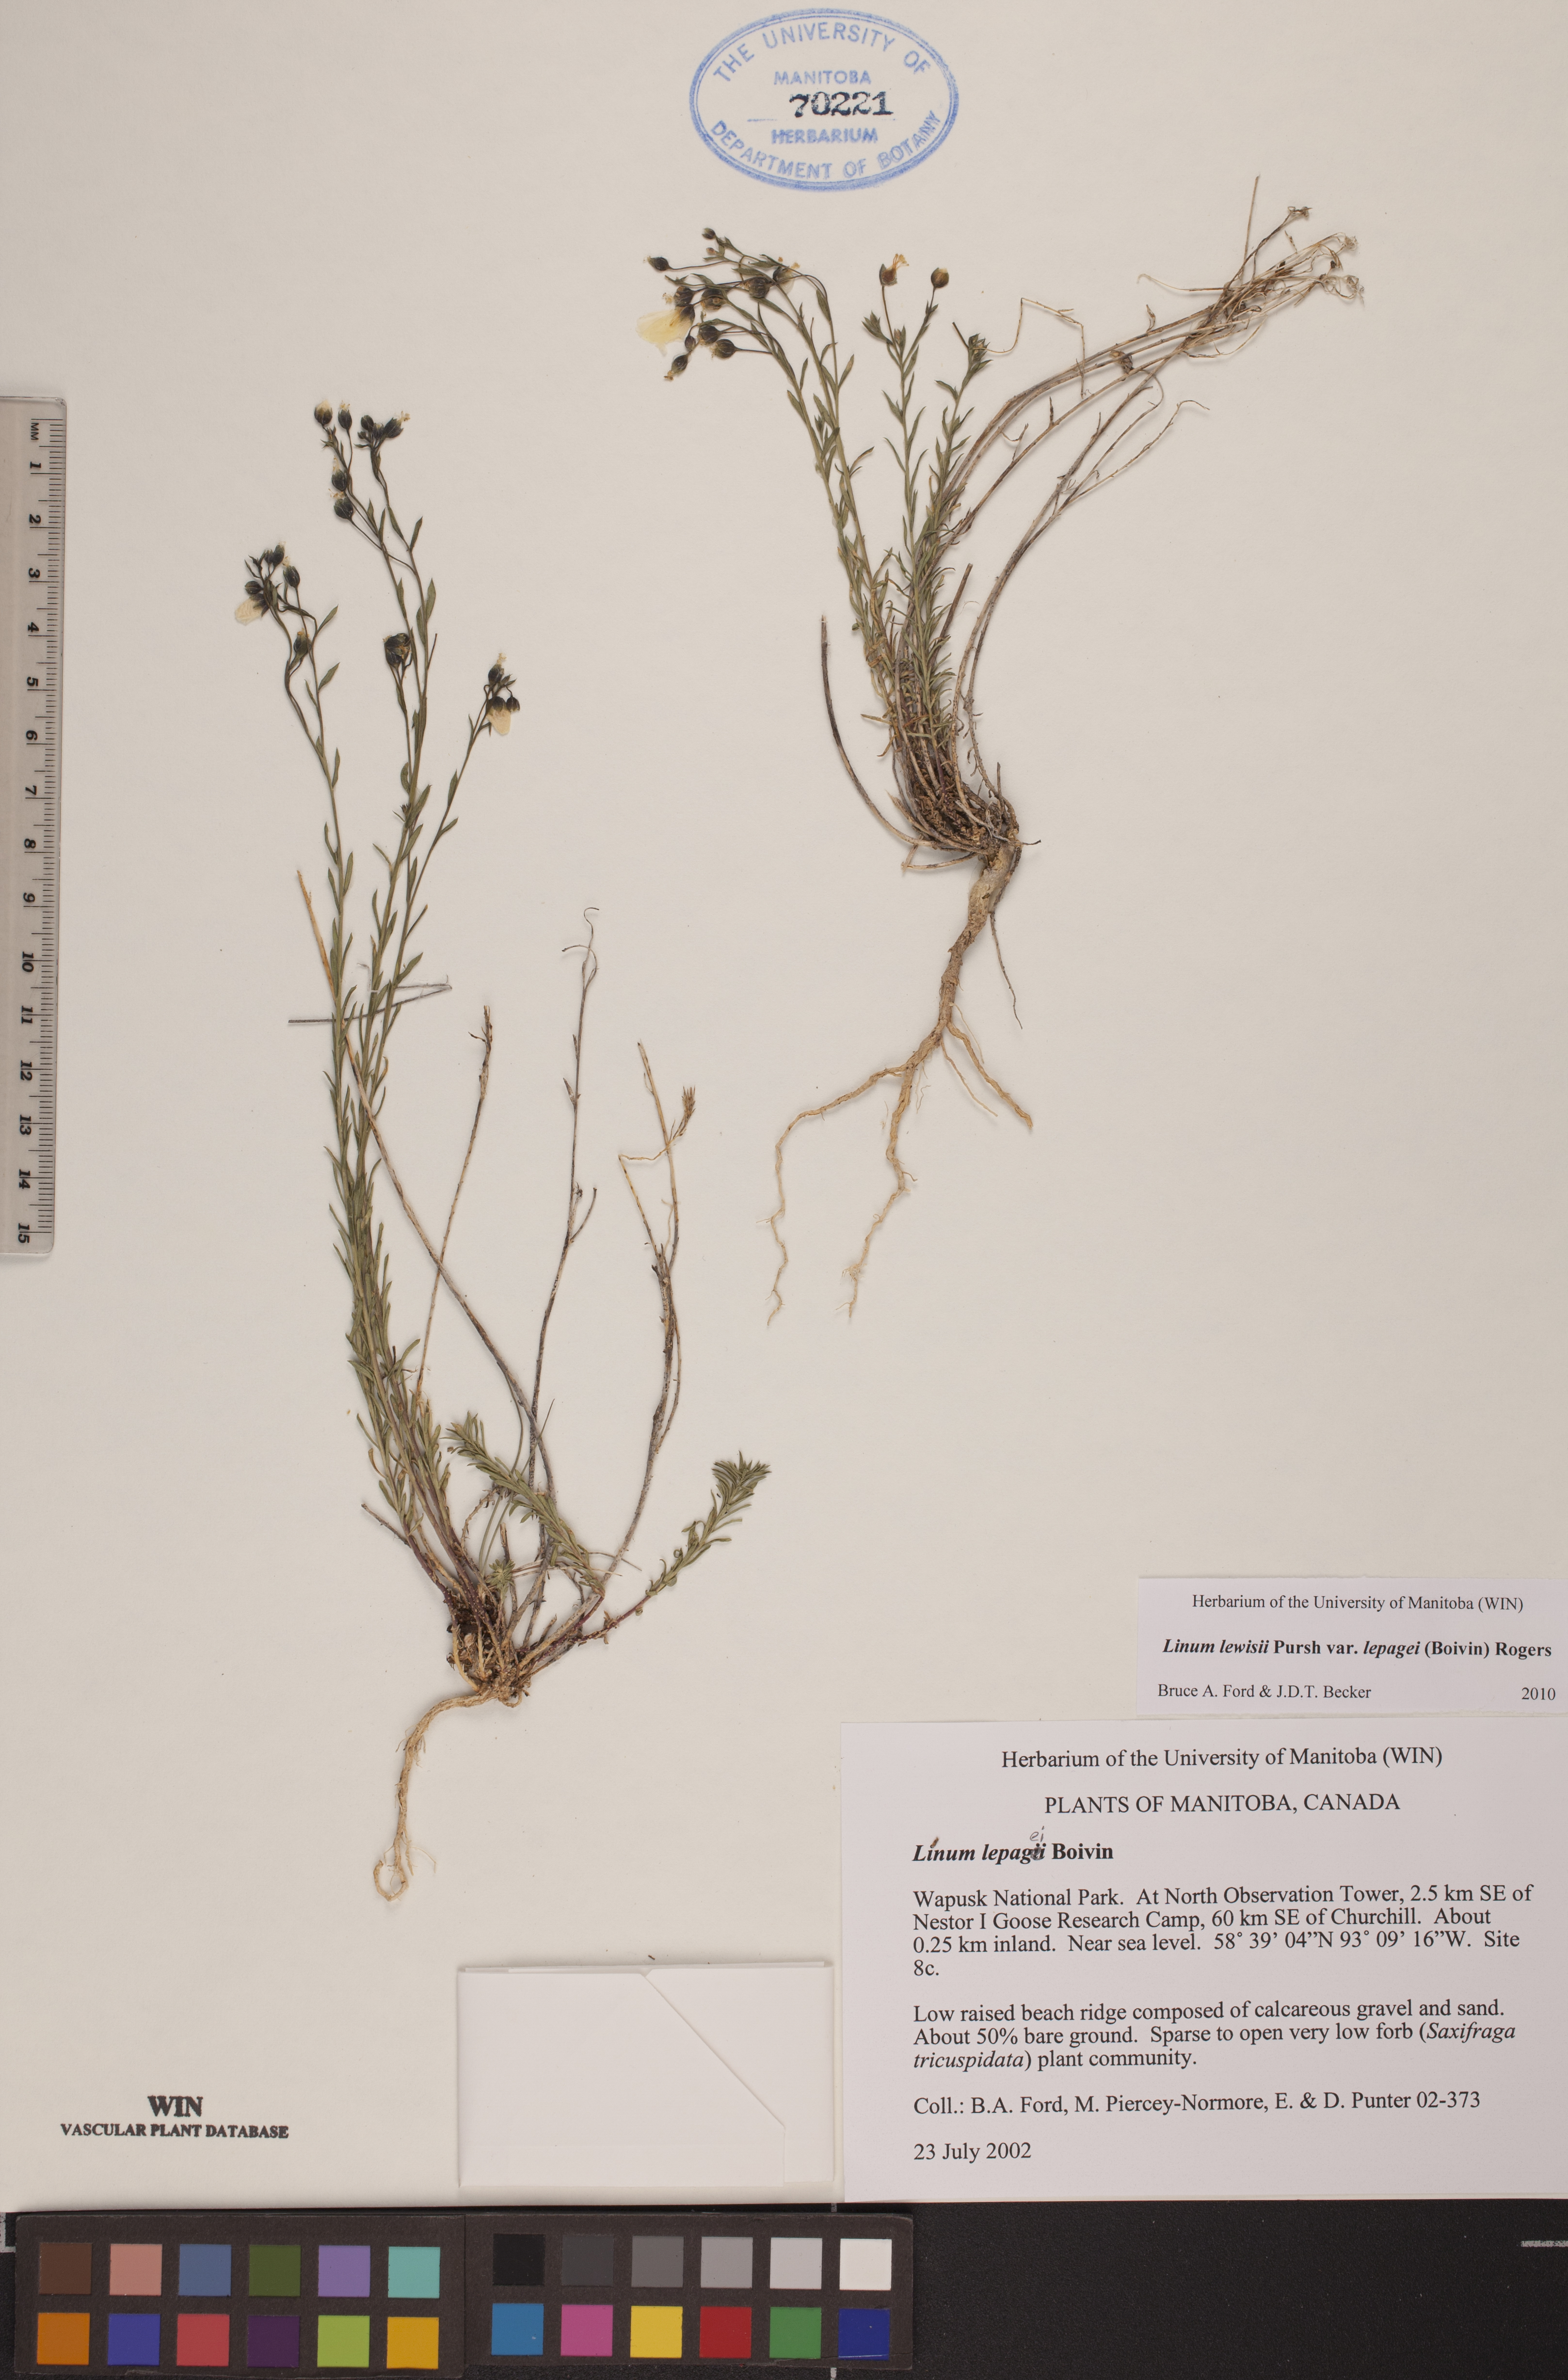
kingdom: Plantae
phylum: Tracheophyta
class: Magnoliopsida
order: Malpighiales
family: Linaceae
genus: Linum
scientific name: Linum lewisii
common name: Prairie flax
